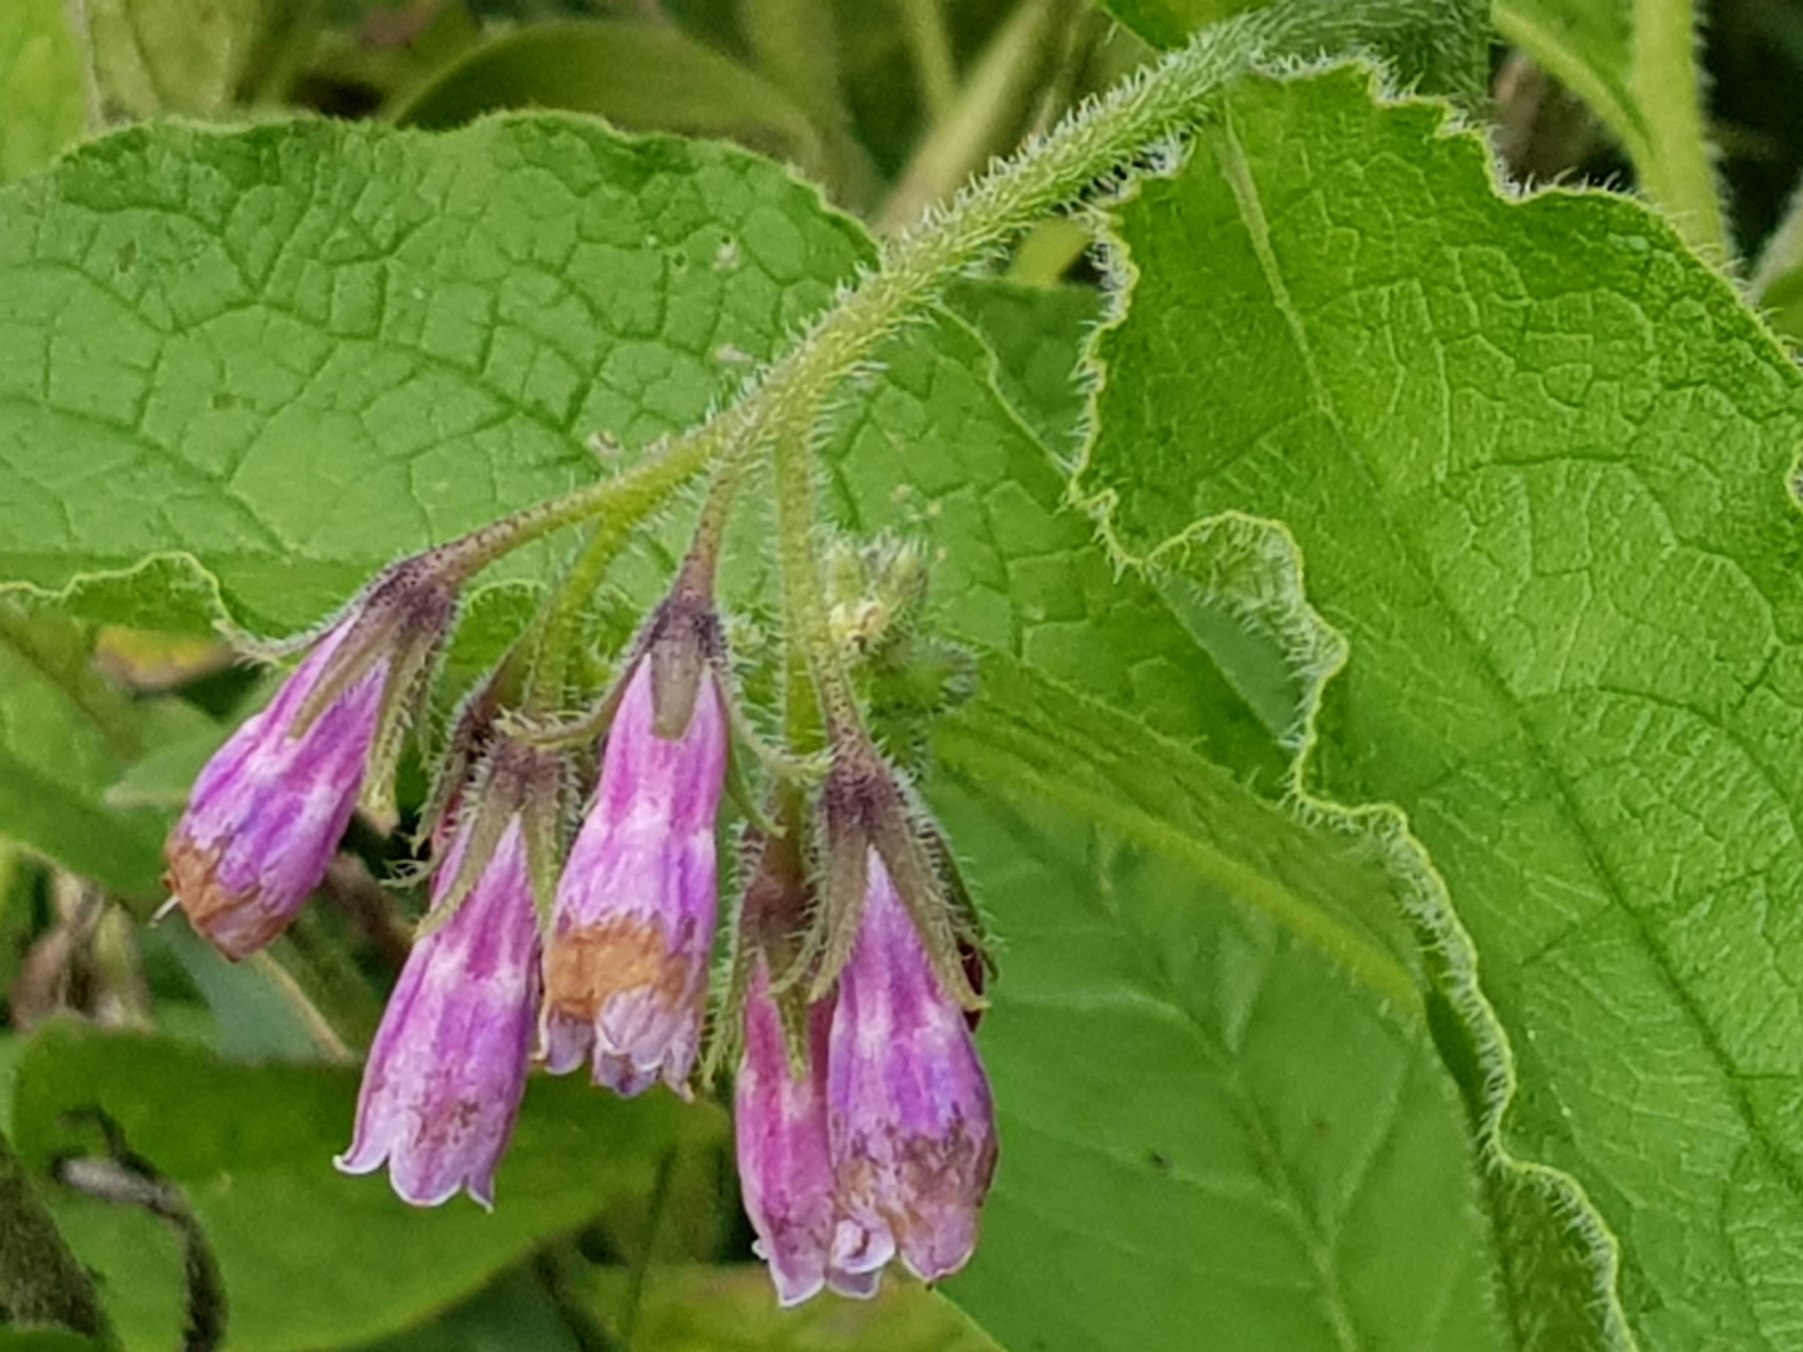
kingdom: Plantae
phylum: Tracheophyta
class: Magnoliopsida
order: Boraginales
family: Boraginaceae
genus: Symphytum
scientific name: Symphytum uplandicum
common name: Foder-kulsukker
